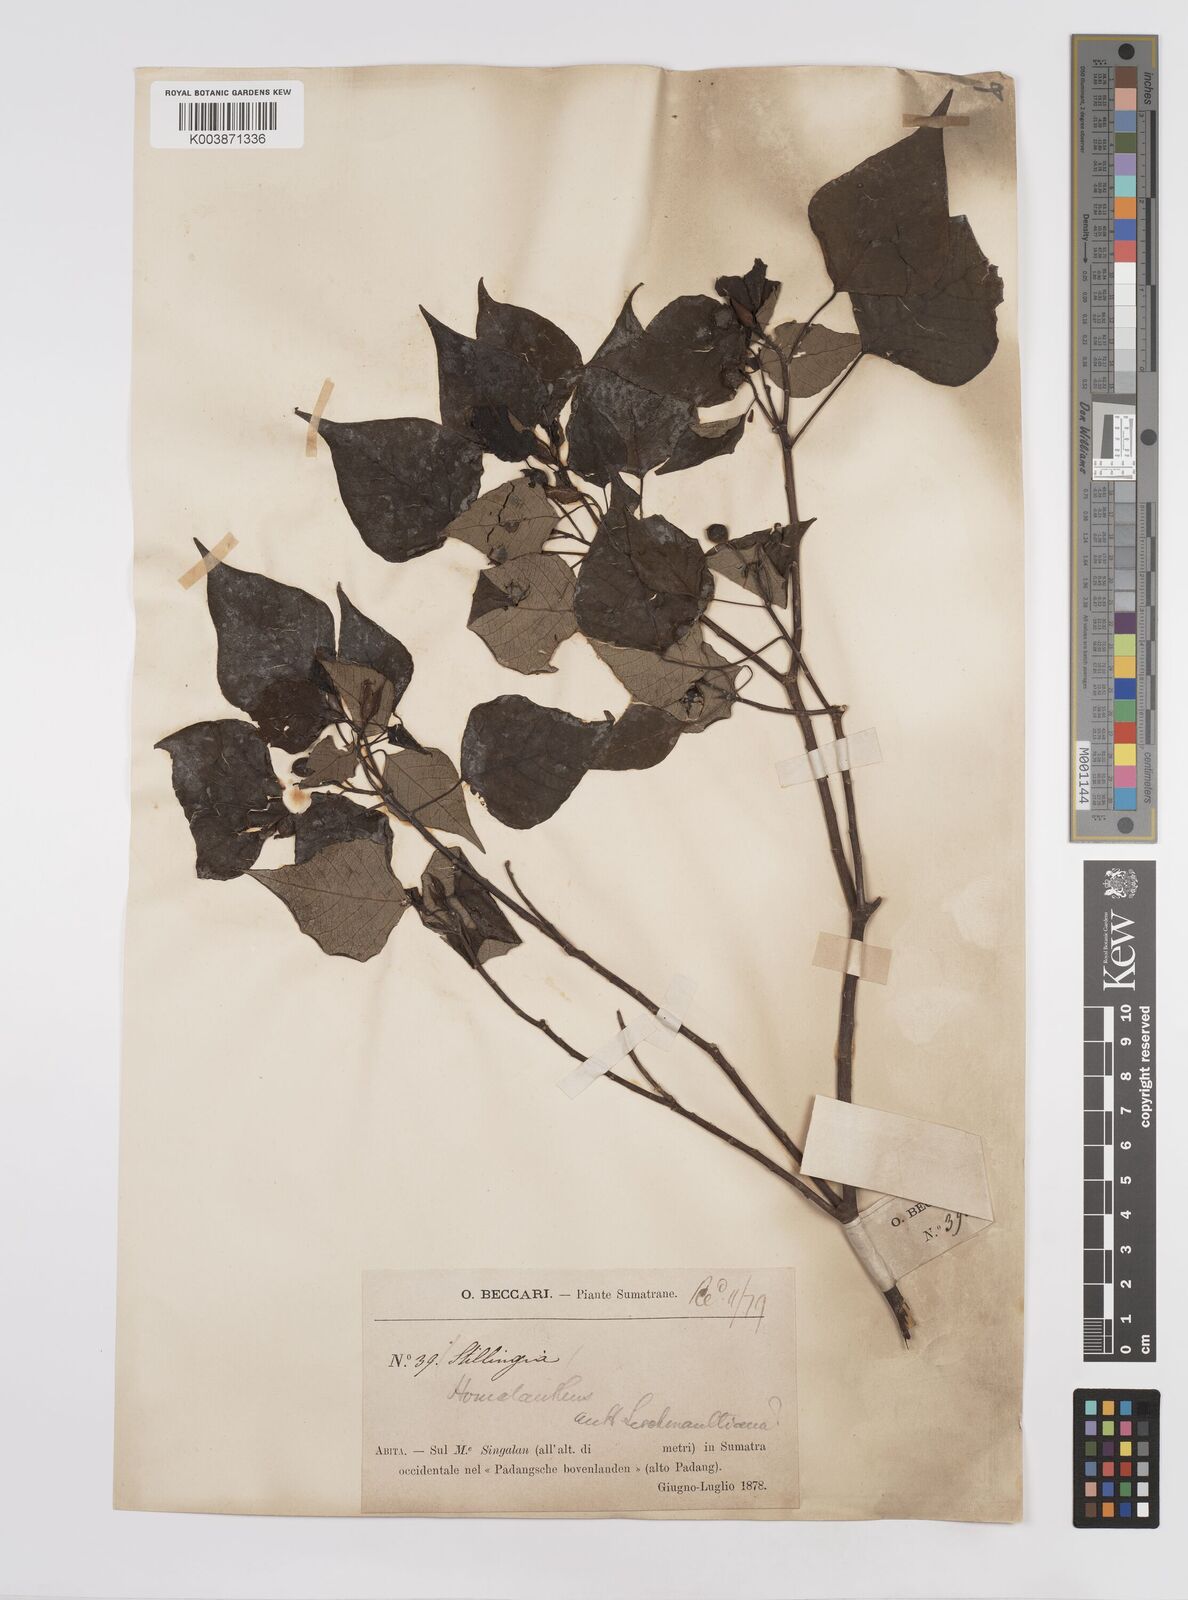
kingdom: Plantae
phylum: Tracheophyta
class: Magnoliopsida
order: Malpighiales
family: Euphorbiaceae
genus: Homalanthus
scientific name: Homalanthus populneus
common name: Spurge
